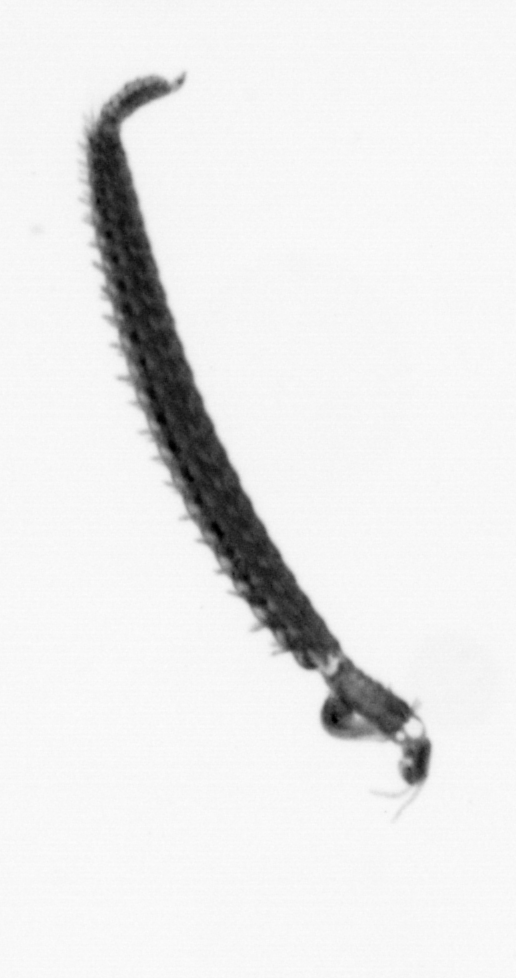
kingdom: Animalia
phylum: Annelida
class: Polychaeta
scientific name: Polychaeta
